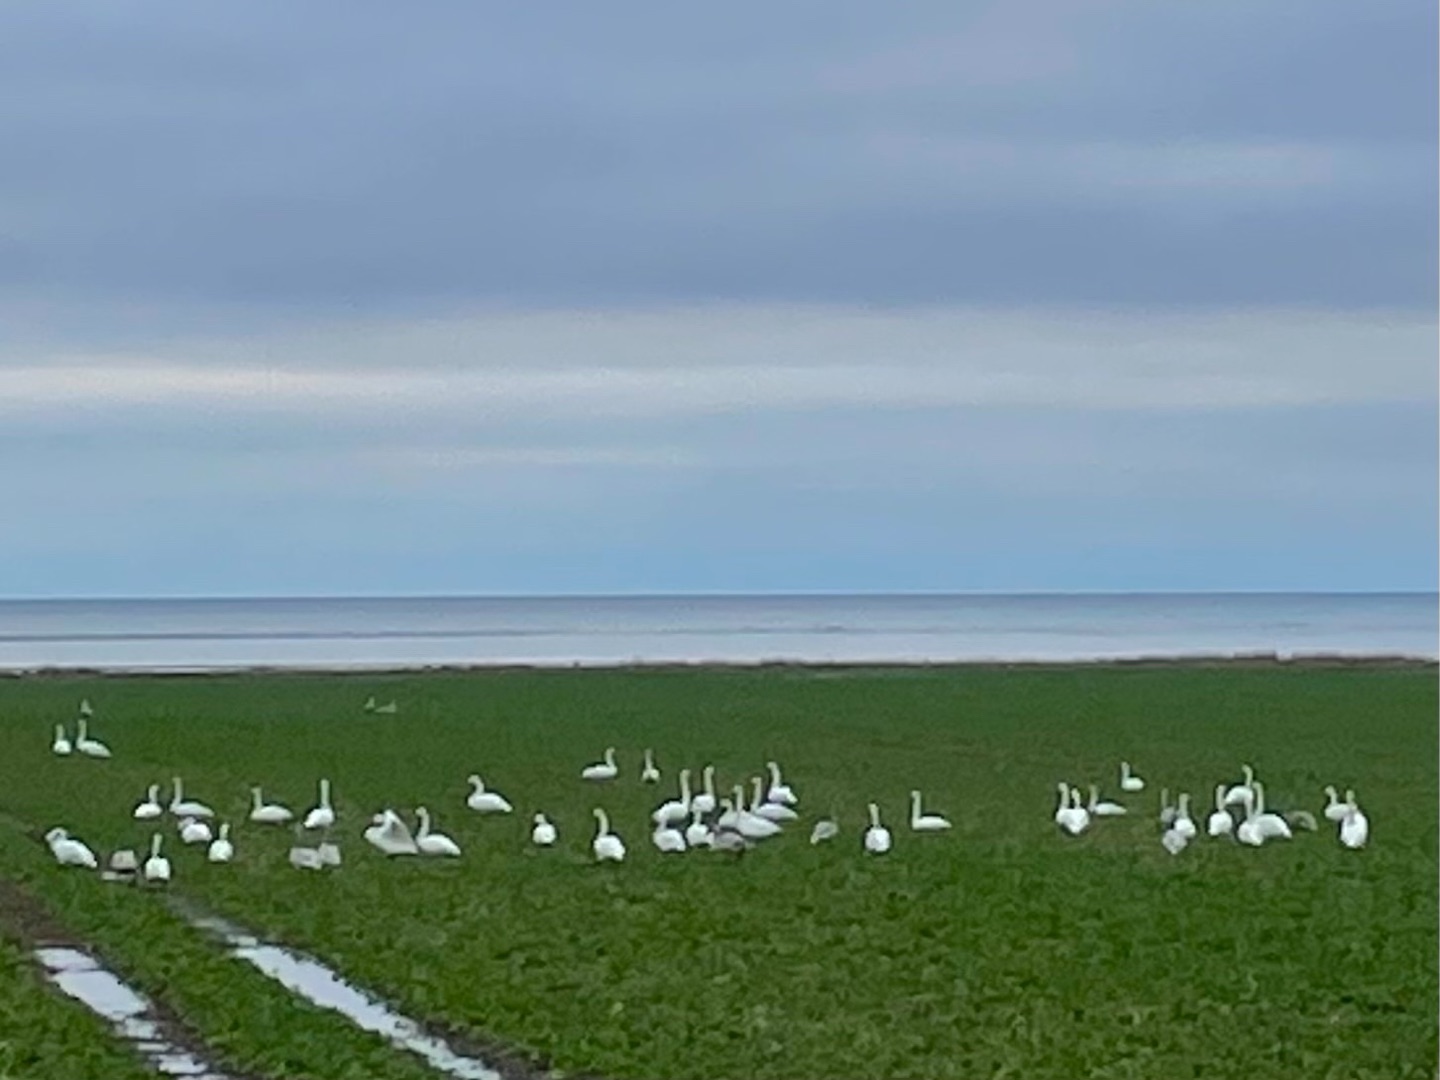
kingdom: Animalia
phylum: Chordata
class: Aves
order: Anseriformes
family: Anatidae
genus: Cygnus
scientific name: Cygnus cygnus
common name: Sangsvane
